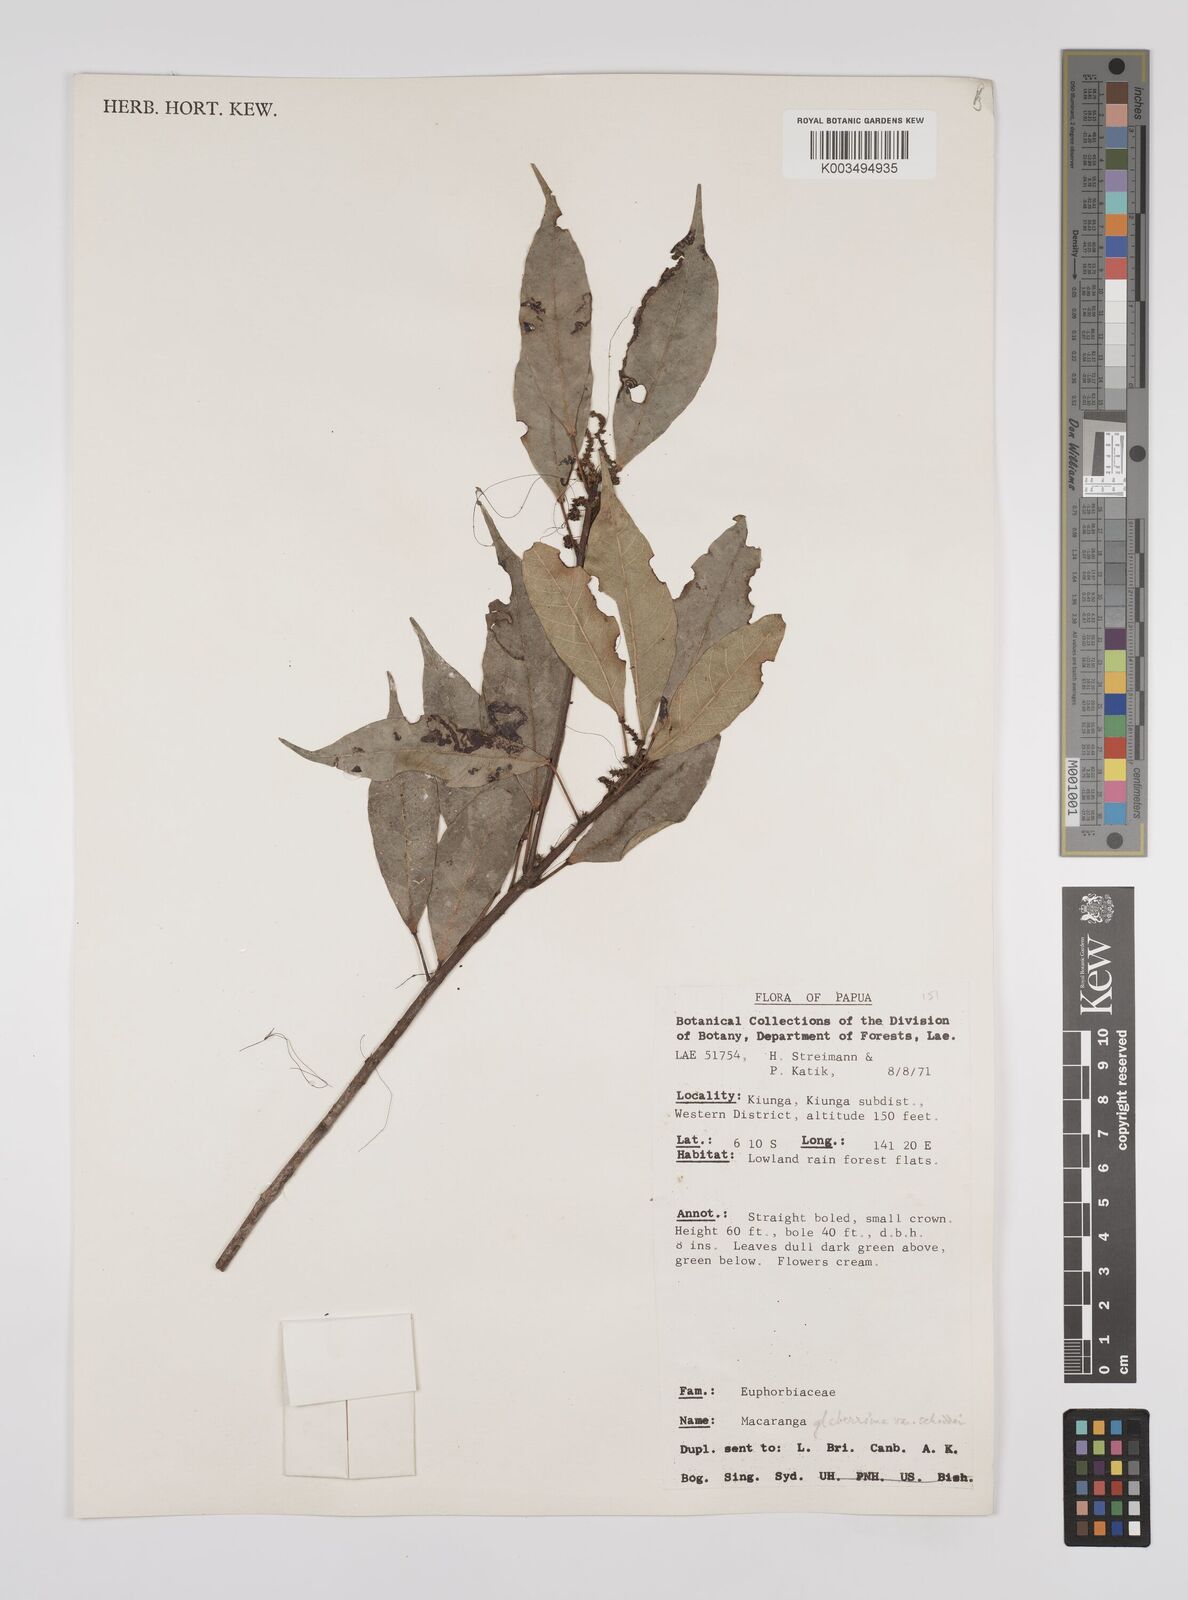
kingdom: Plantae
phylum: Tracheophyta
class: Magnoliopsida
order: Malpighiales
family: Euphorbiaceae
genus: Macaranga
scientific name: Macaranga glaberrima
